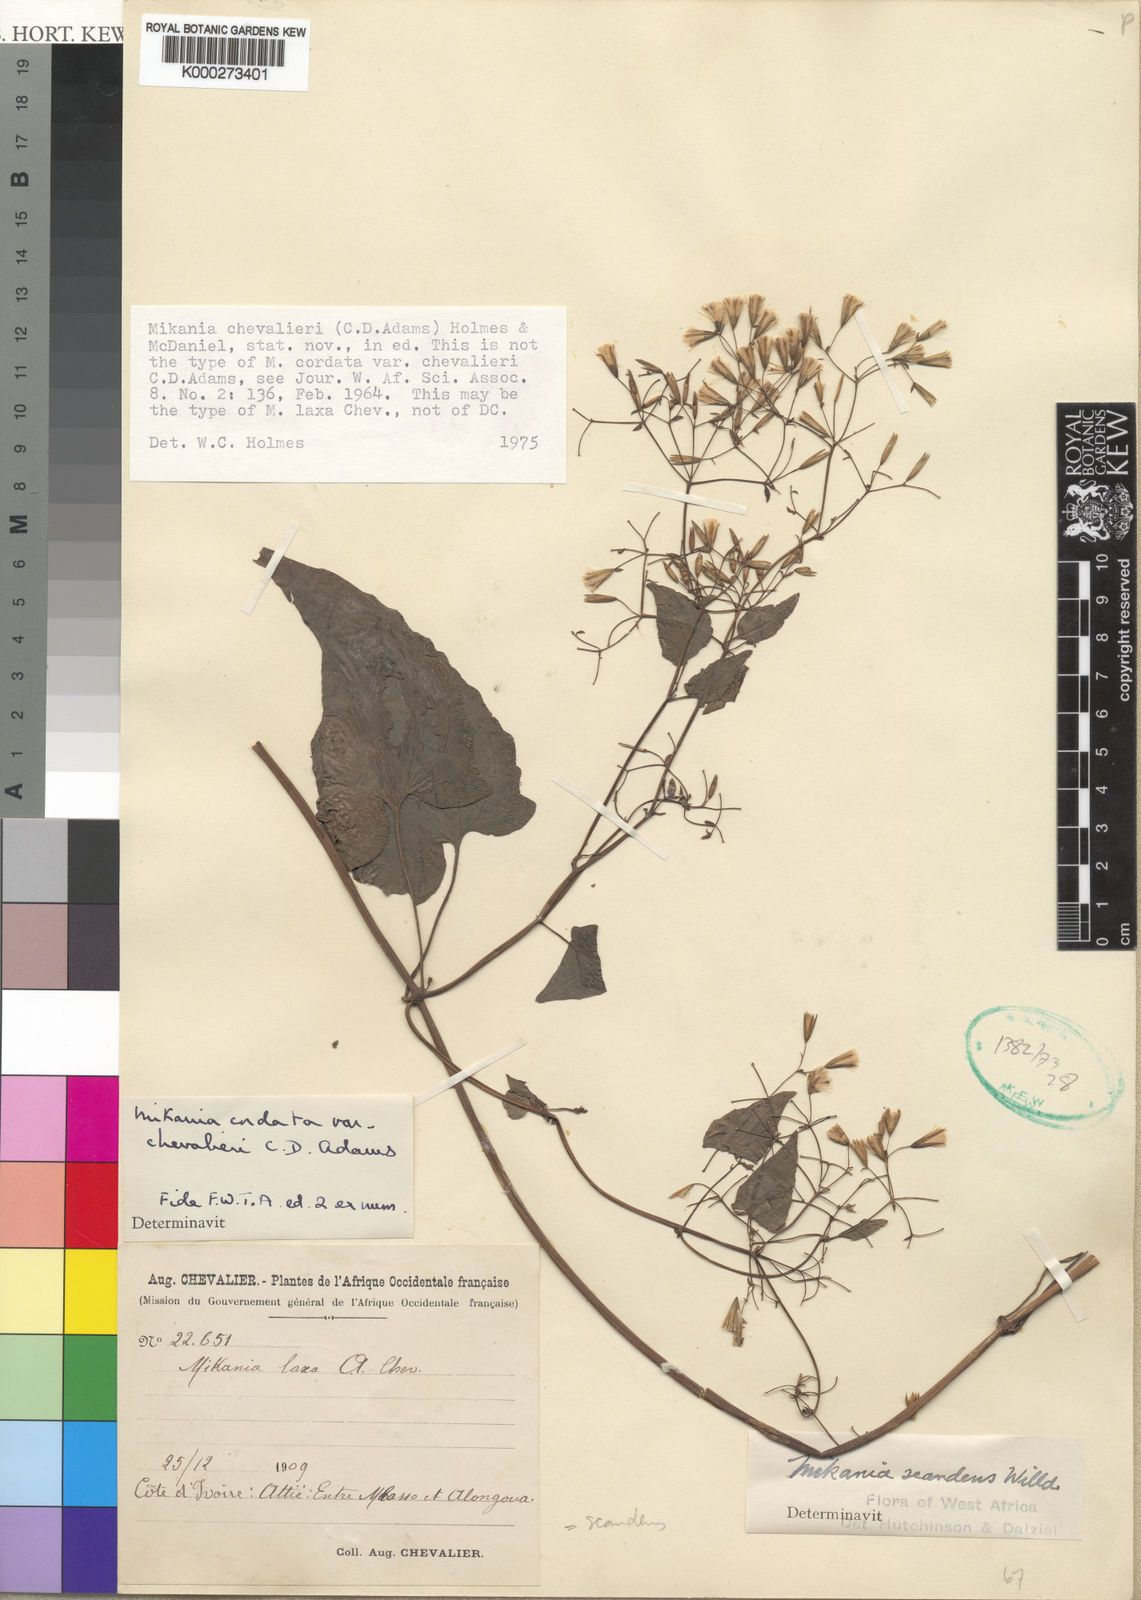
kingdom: Plantae
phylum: Tracheophyta
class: Magnoliopsida
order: Asterales
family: Asteraceae
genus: Mikania
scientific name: Mikania chevalieri
